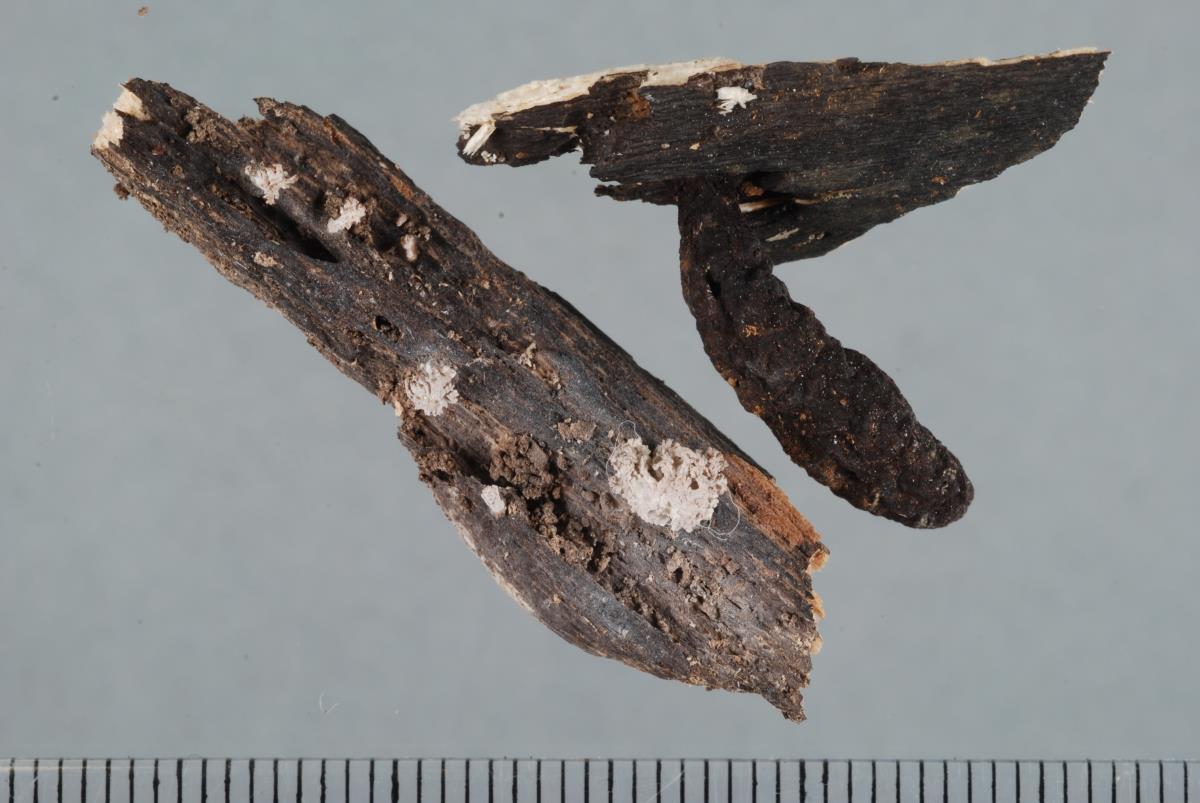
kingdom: Fungi
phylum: Ascomycota
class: Sordariomycetes
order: Xylariales
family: Xylariaceae
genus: Xylaria
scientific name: Xylaria cubensis
